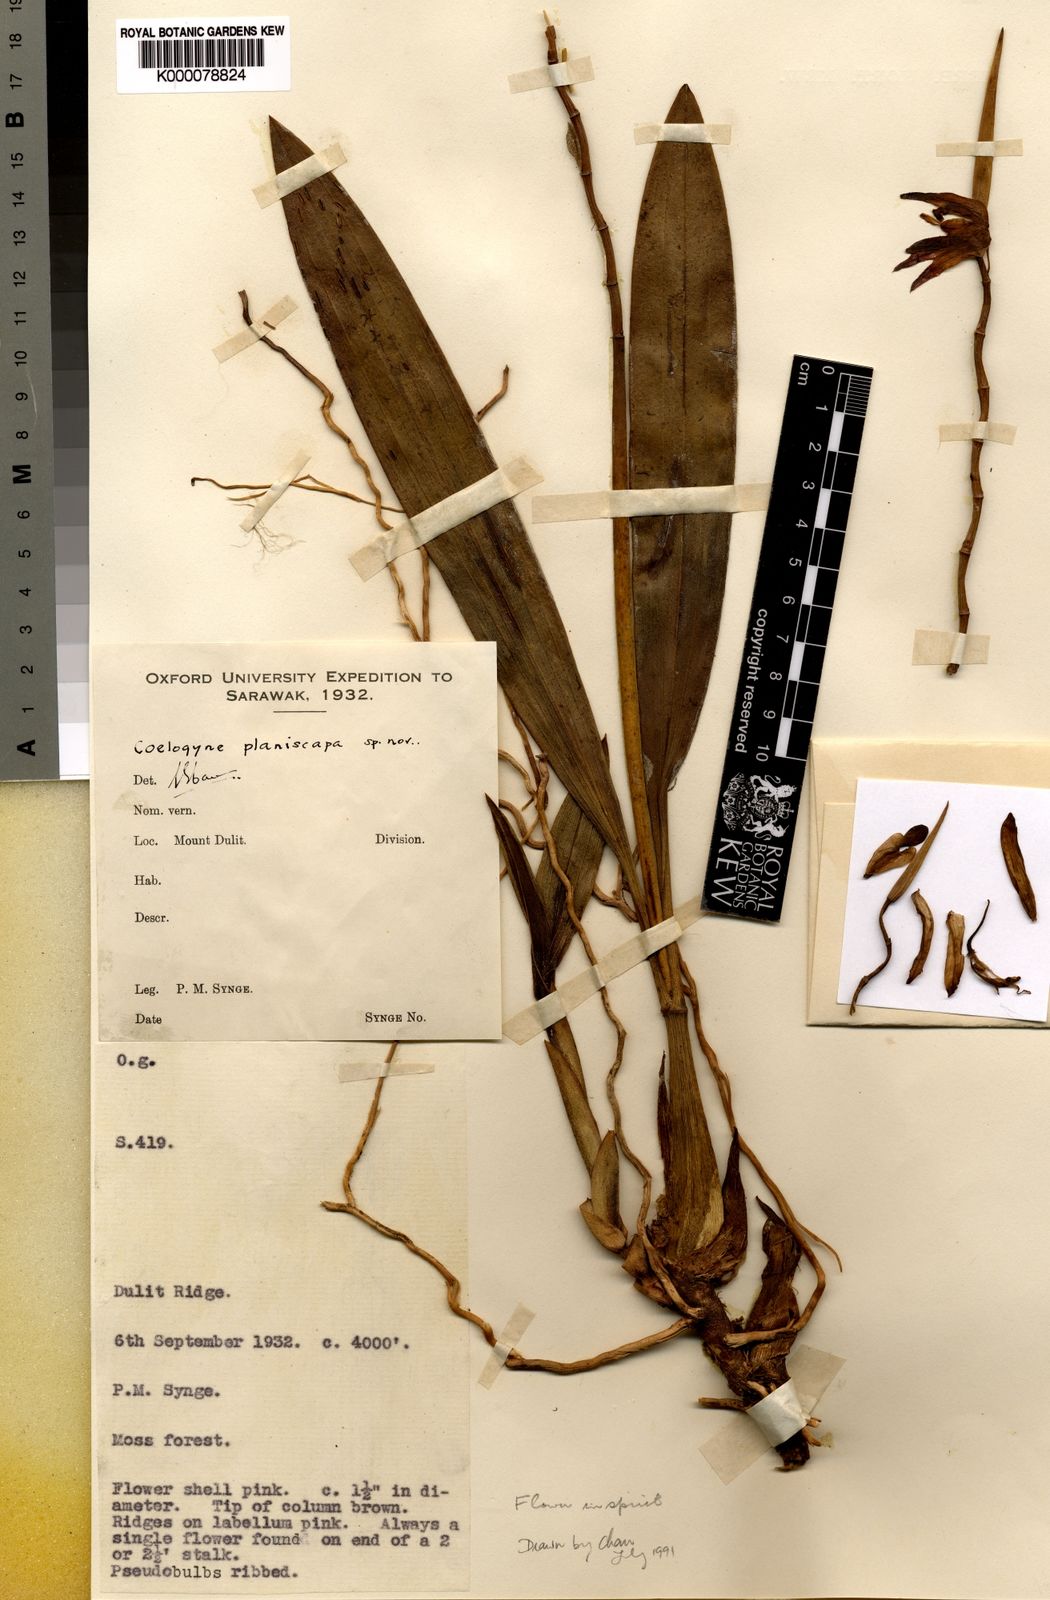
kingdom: Plantae
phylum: Tracheophyta
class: Liliopsida
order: Asparagales
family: Orchidaceae
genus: Coelogyne
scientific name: Coelogyne planiscapa
